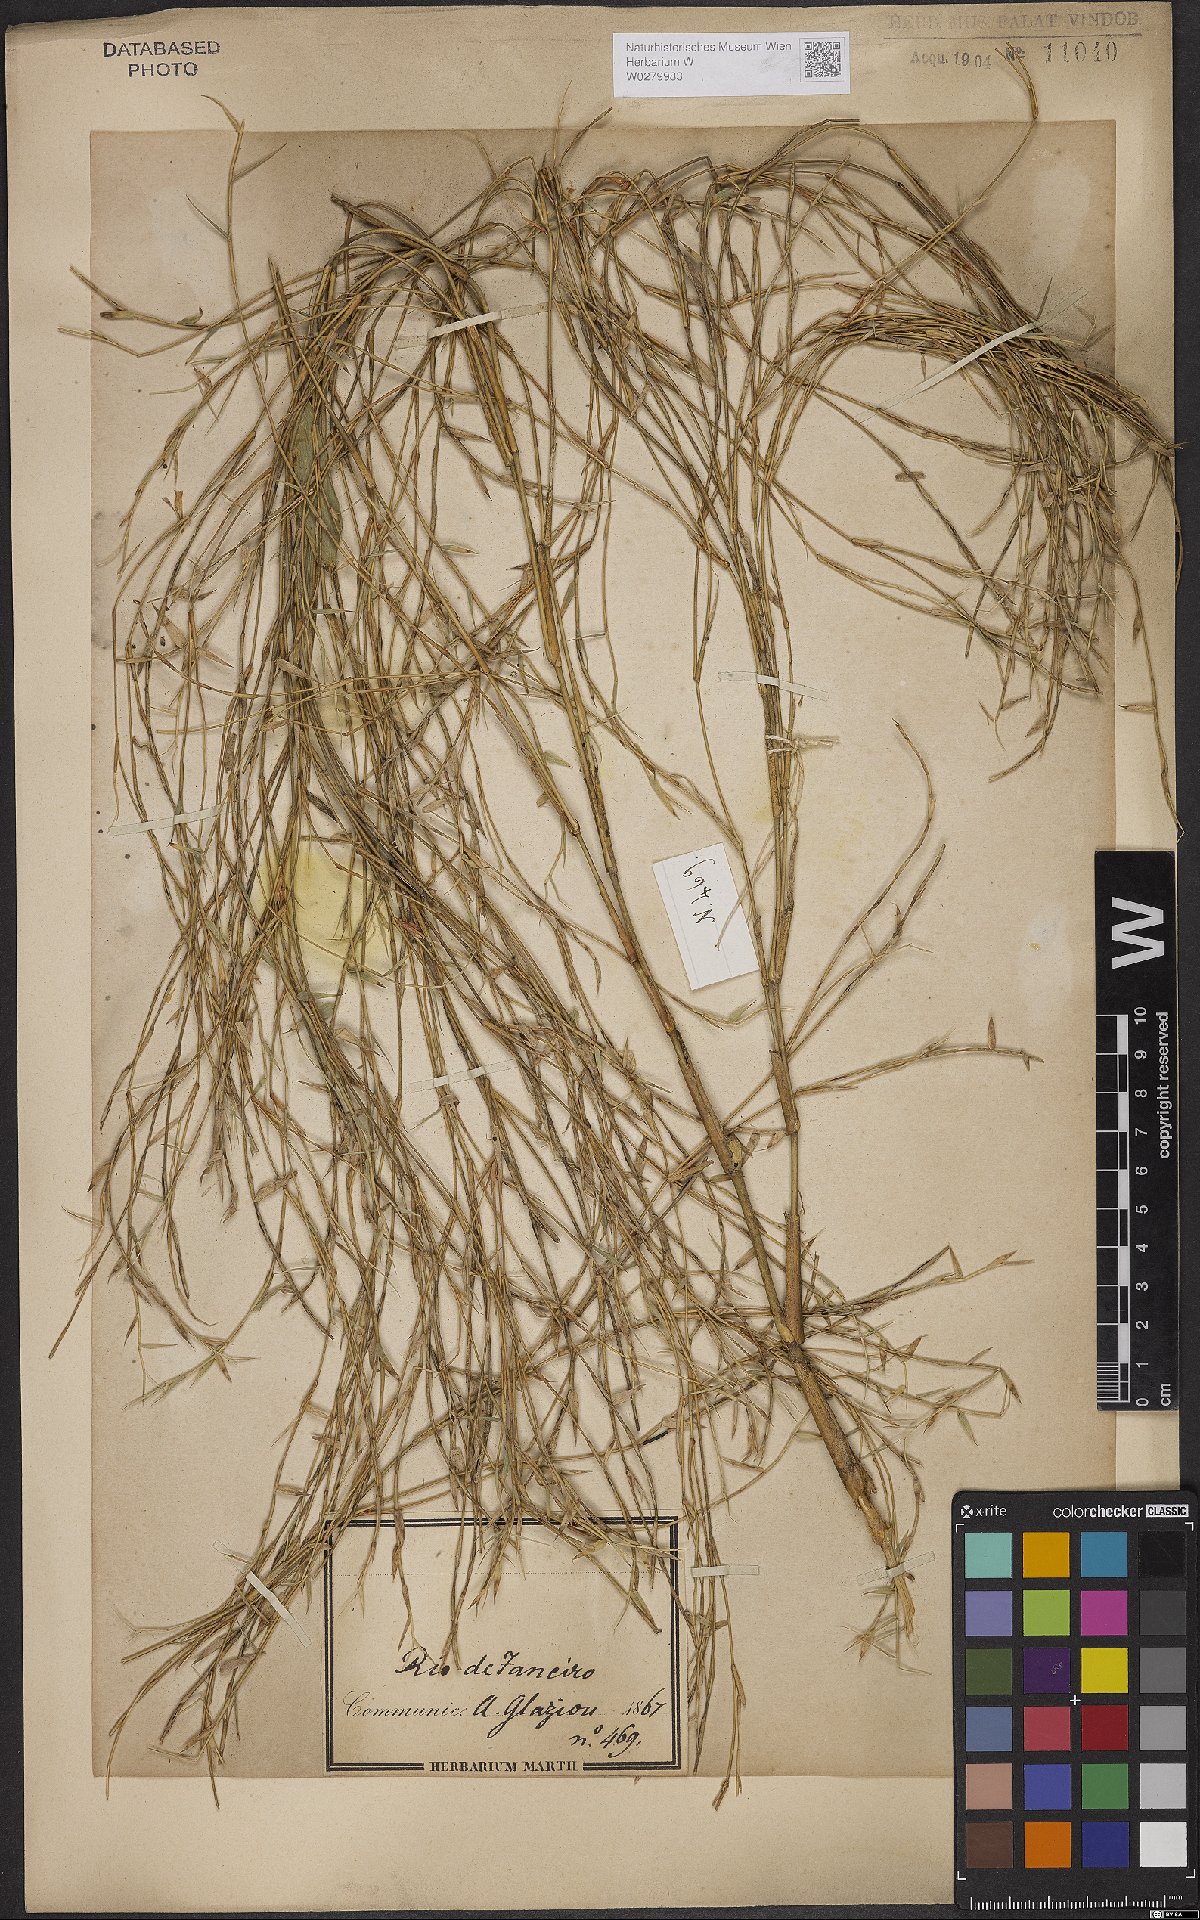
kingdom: Plantae
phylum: Tracheophyta
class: Liliopsida
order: Poales
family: Poaceae
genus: Bambusa
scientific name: Bambusa
